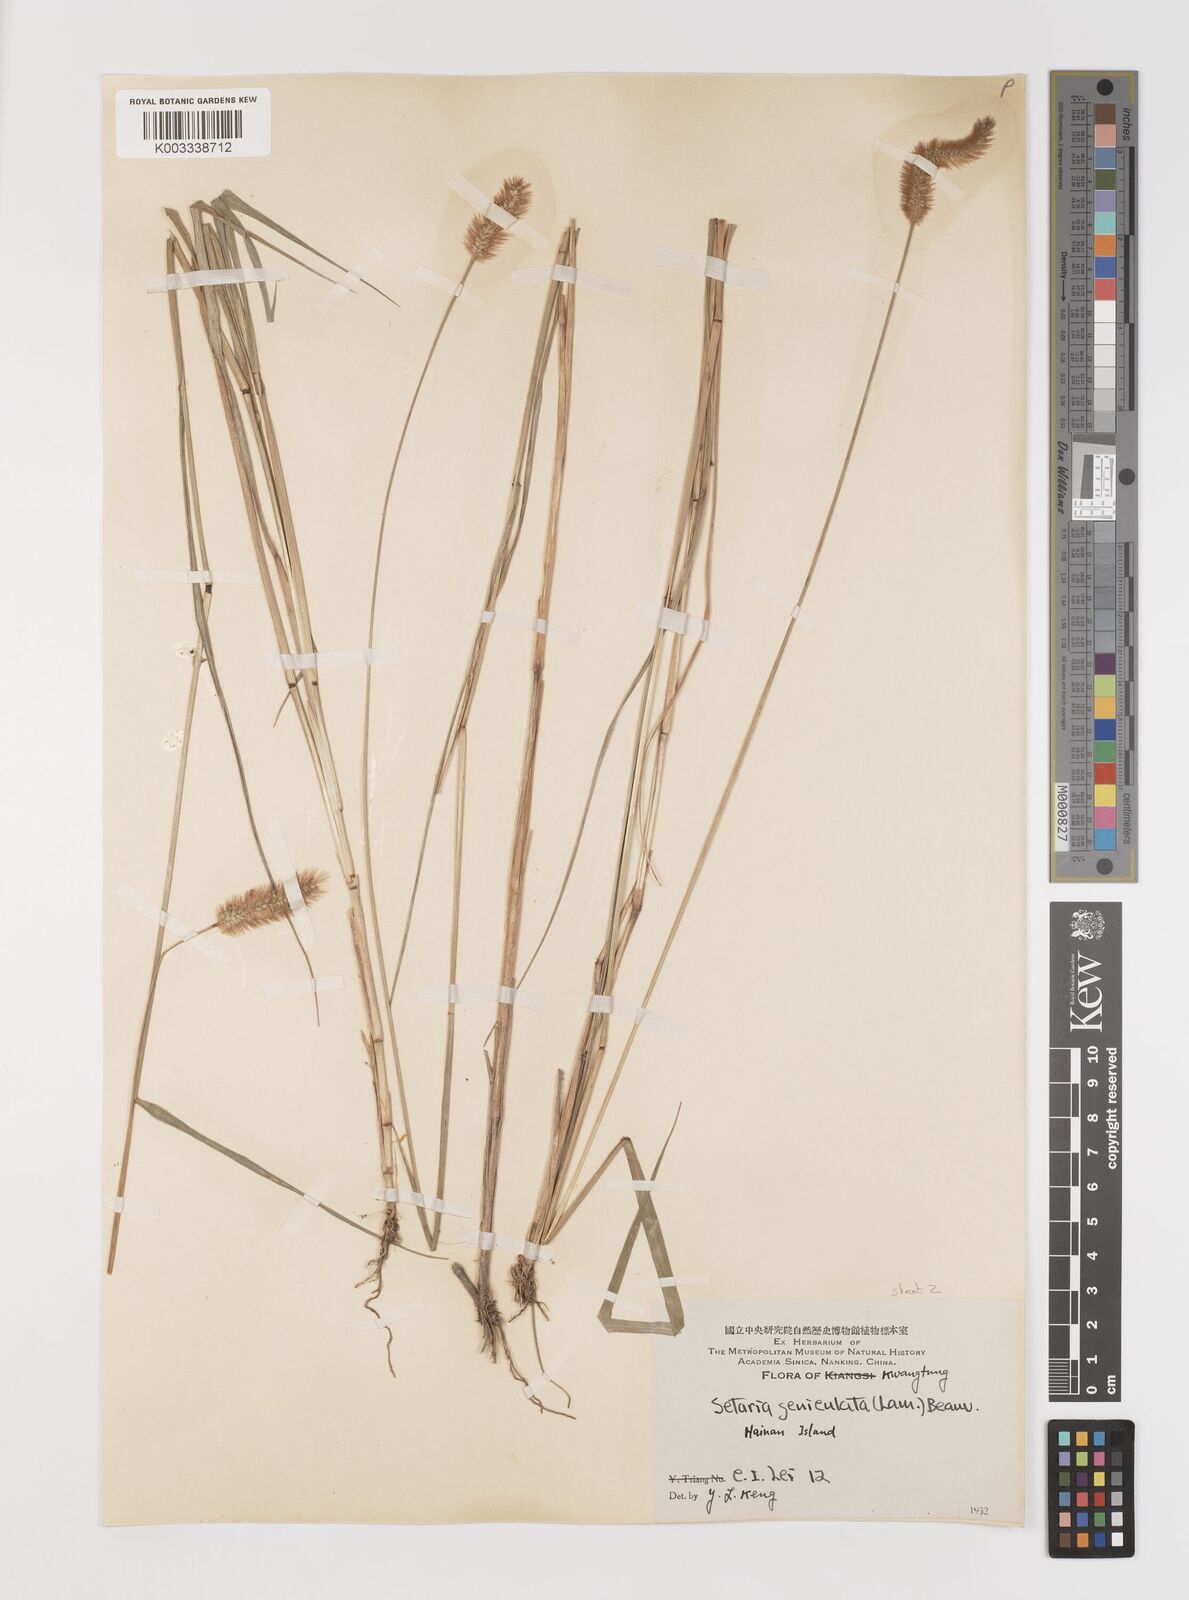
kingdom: Plantae
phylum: Tracheophyta
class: Liliopsida
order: Poales
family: Poaceae
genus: Setaria
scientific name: Setaria parviflora
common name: Knotroot bristle-grass
